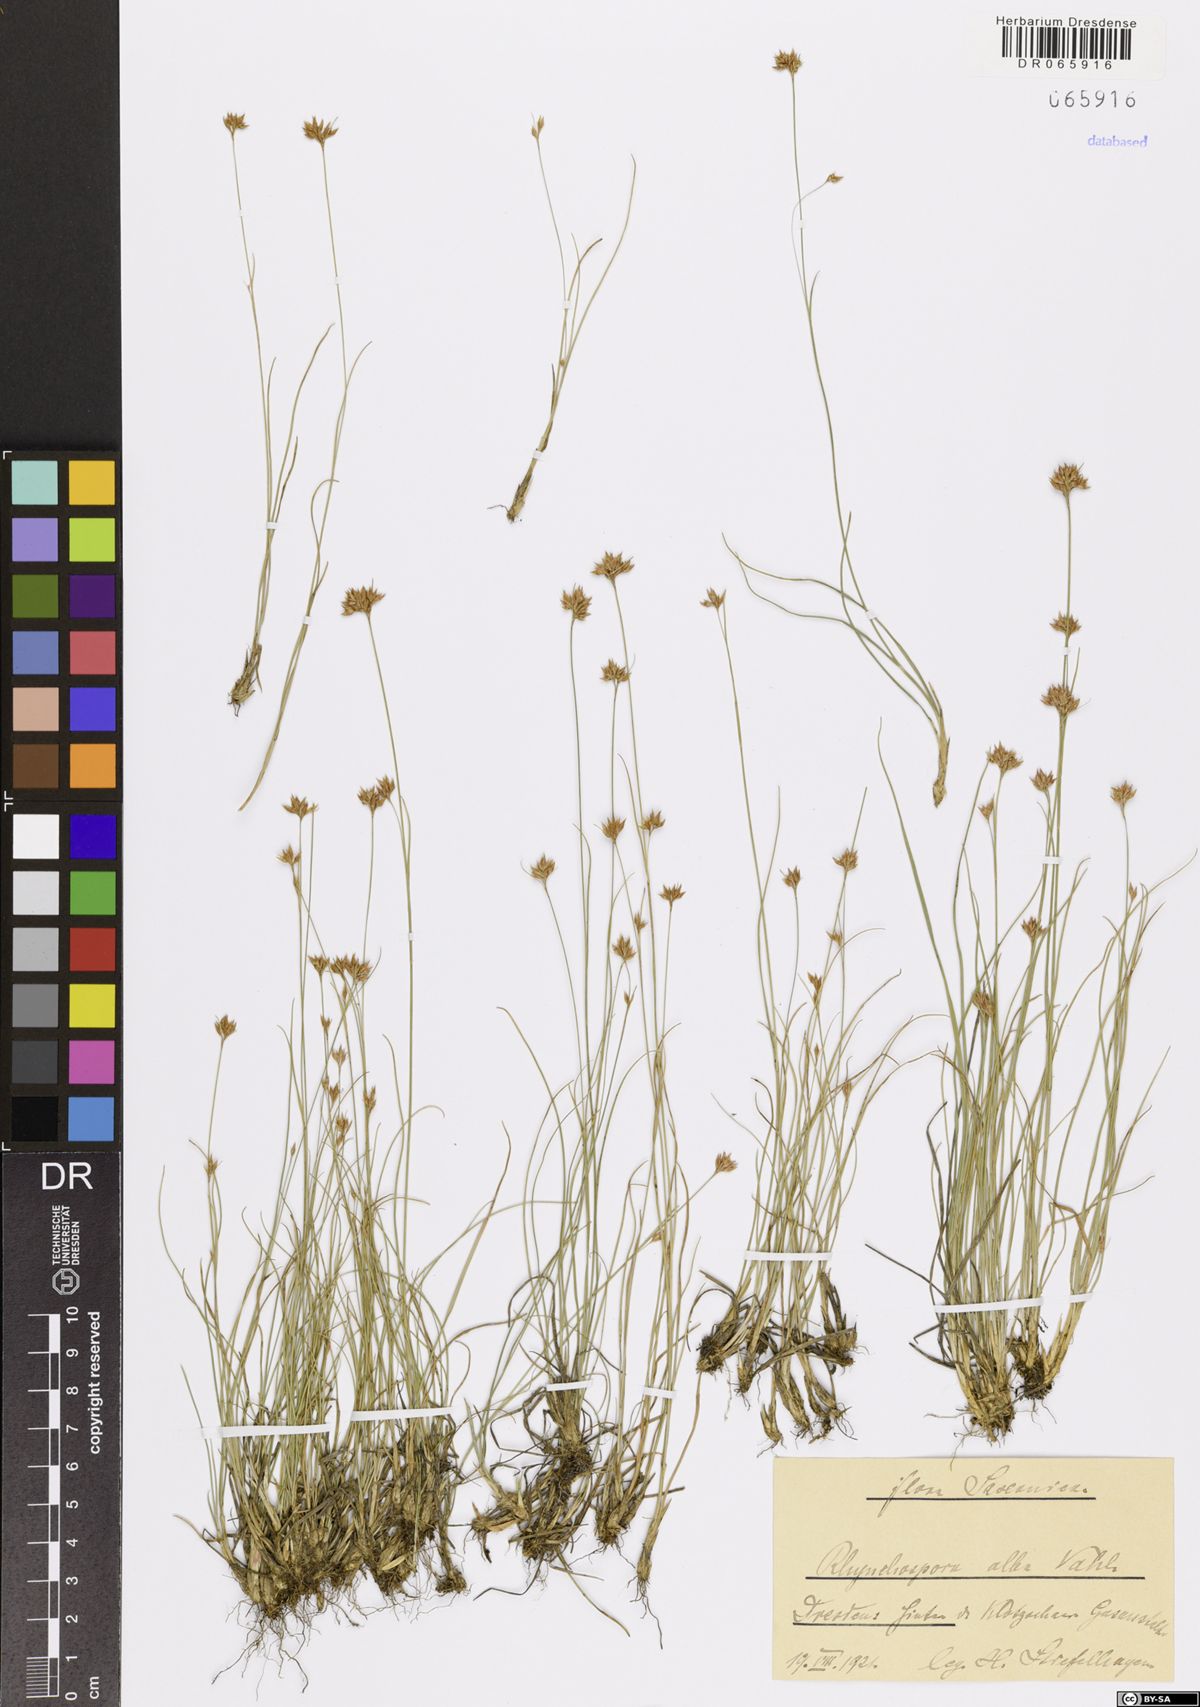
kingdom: Plantae
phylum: Tracheophyta
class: Liliopsida
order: Poales
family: Cyperaceae
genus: Rhynchospora
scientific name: Rhynchospora alba
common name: White beak-sedge
